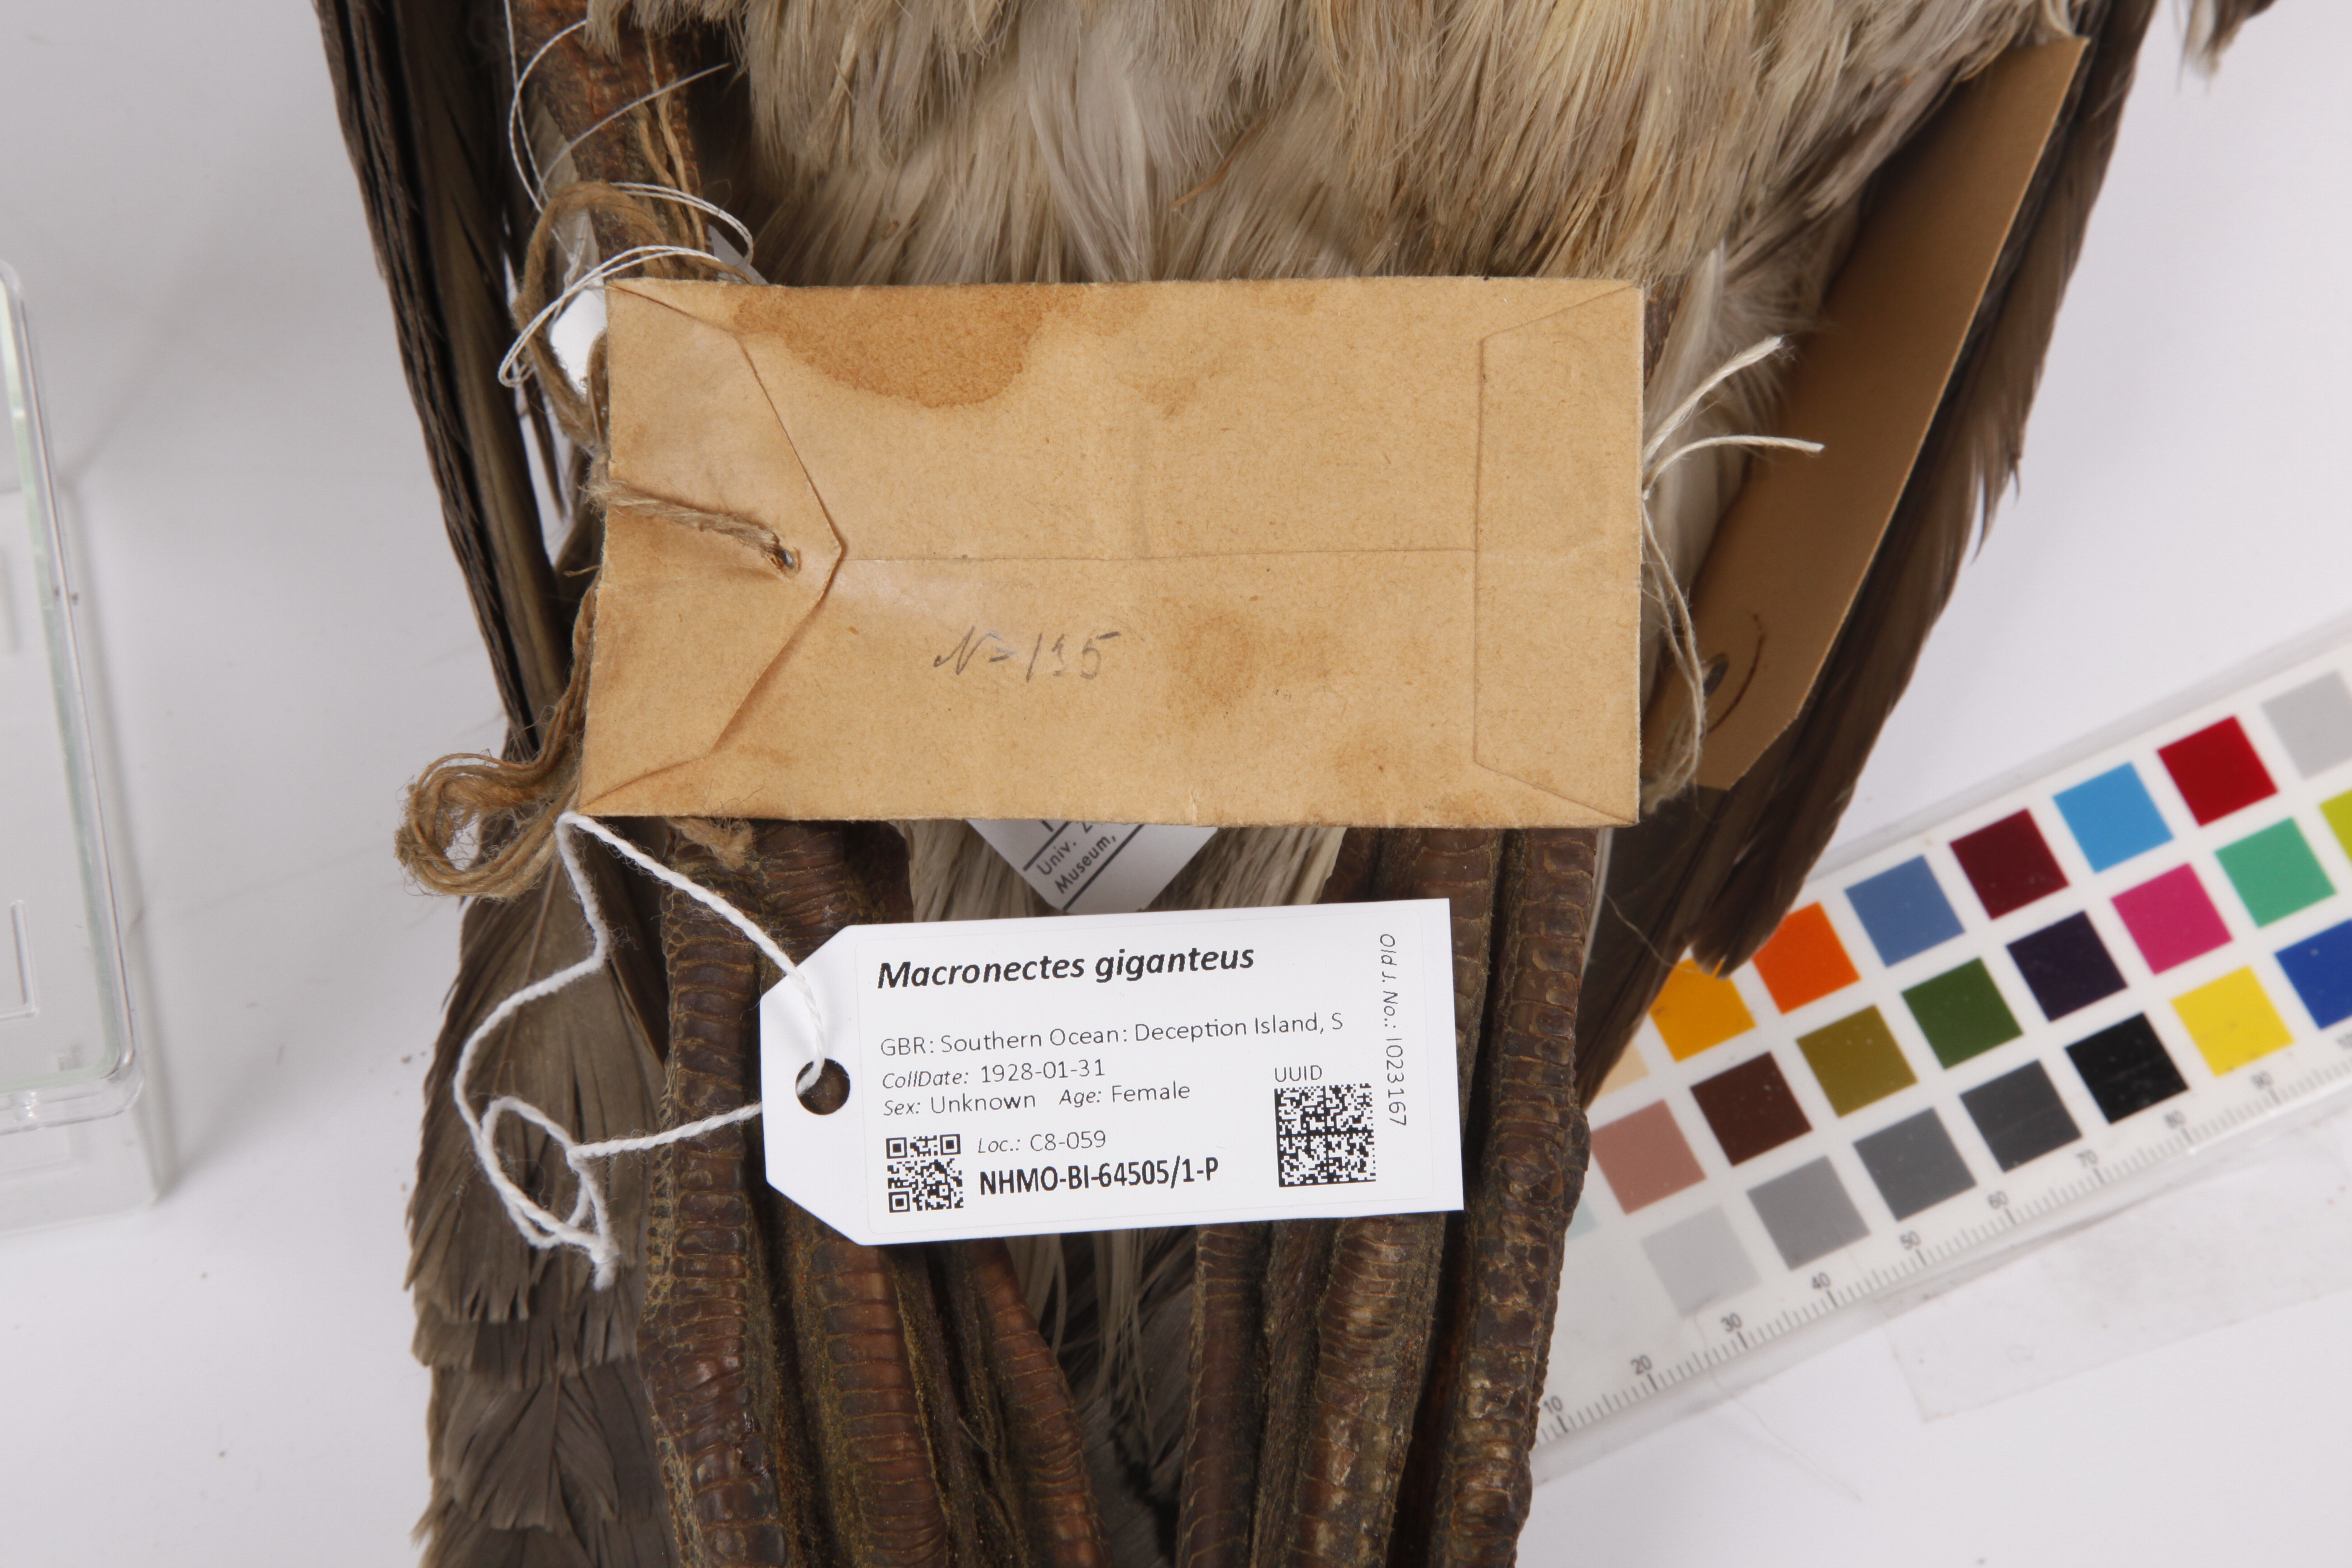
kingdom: Animalia
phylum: Chordata
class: Aves
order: Procellariiformes
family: Procellariidae
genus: Macronectes
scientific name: Macronectes giganteus
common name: Southern giant petrel
